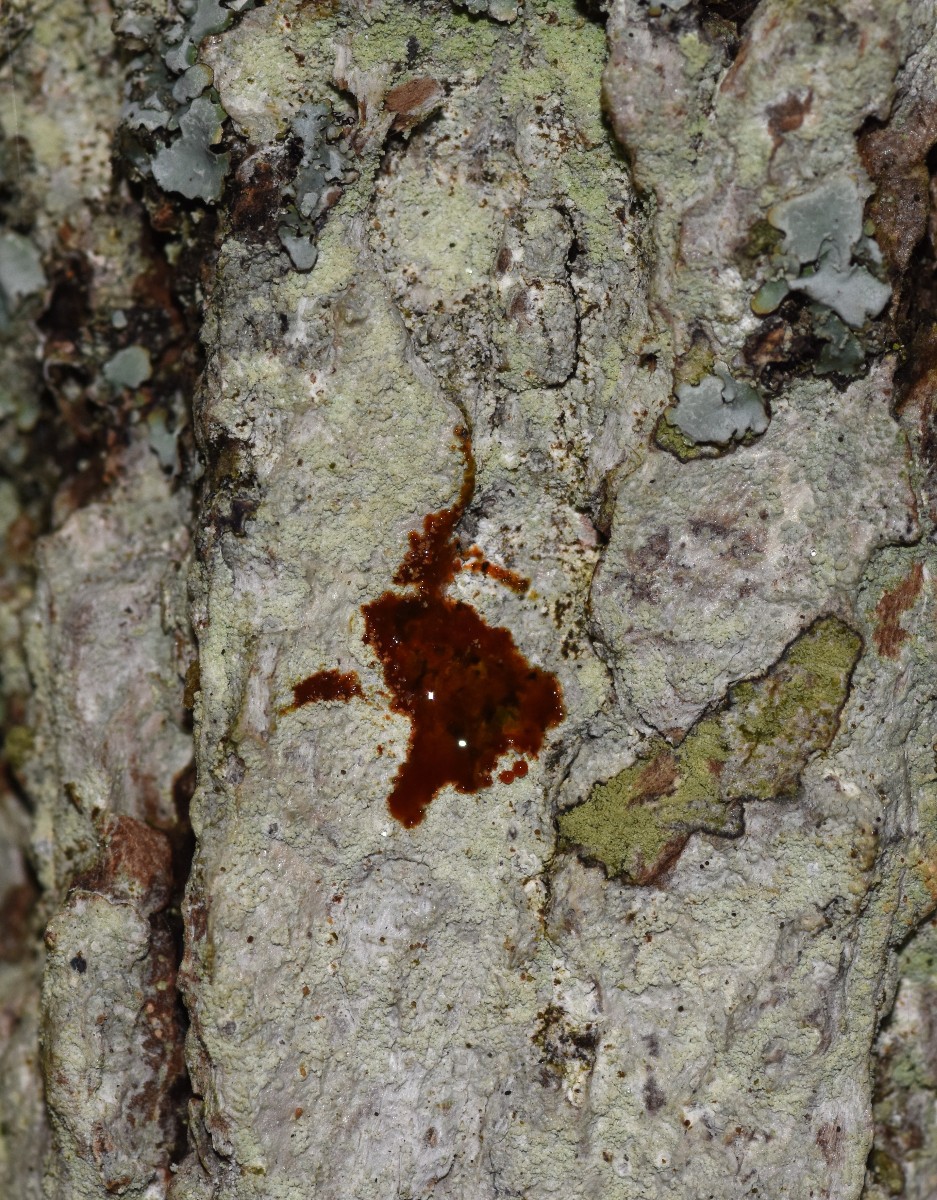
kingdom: Fungi
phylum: Ascomycota
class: Lecanoromycetes
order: Ostropales
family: Phlyctidaceae
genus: Phlyctis
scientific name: Phlyctis argena
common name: almindelig sølvlav
